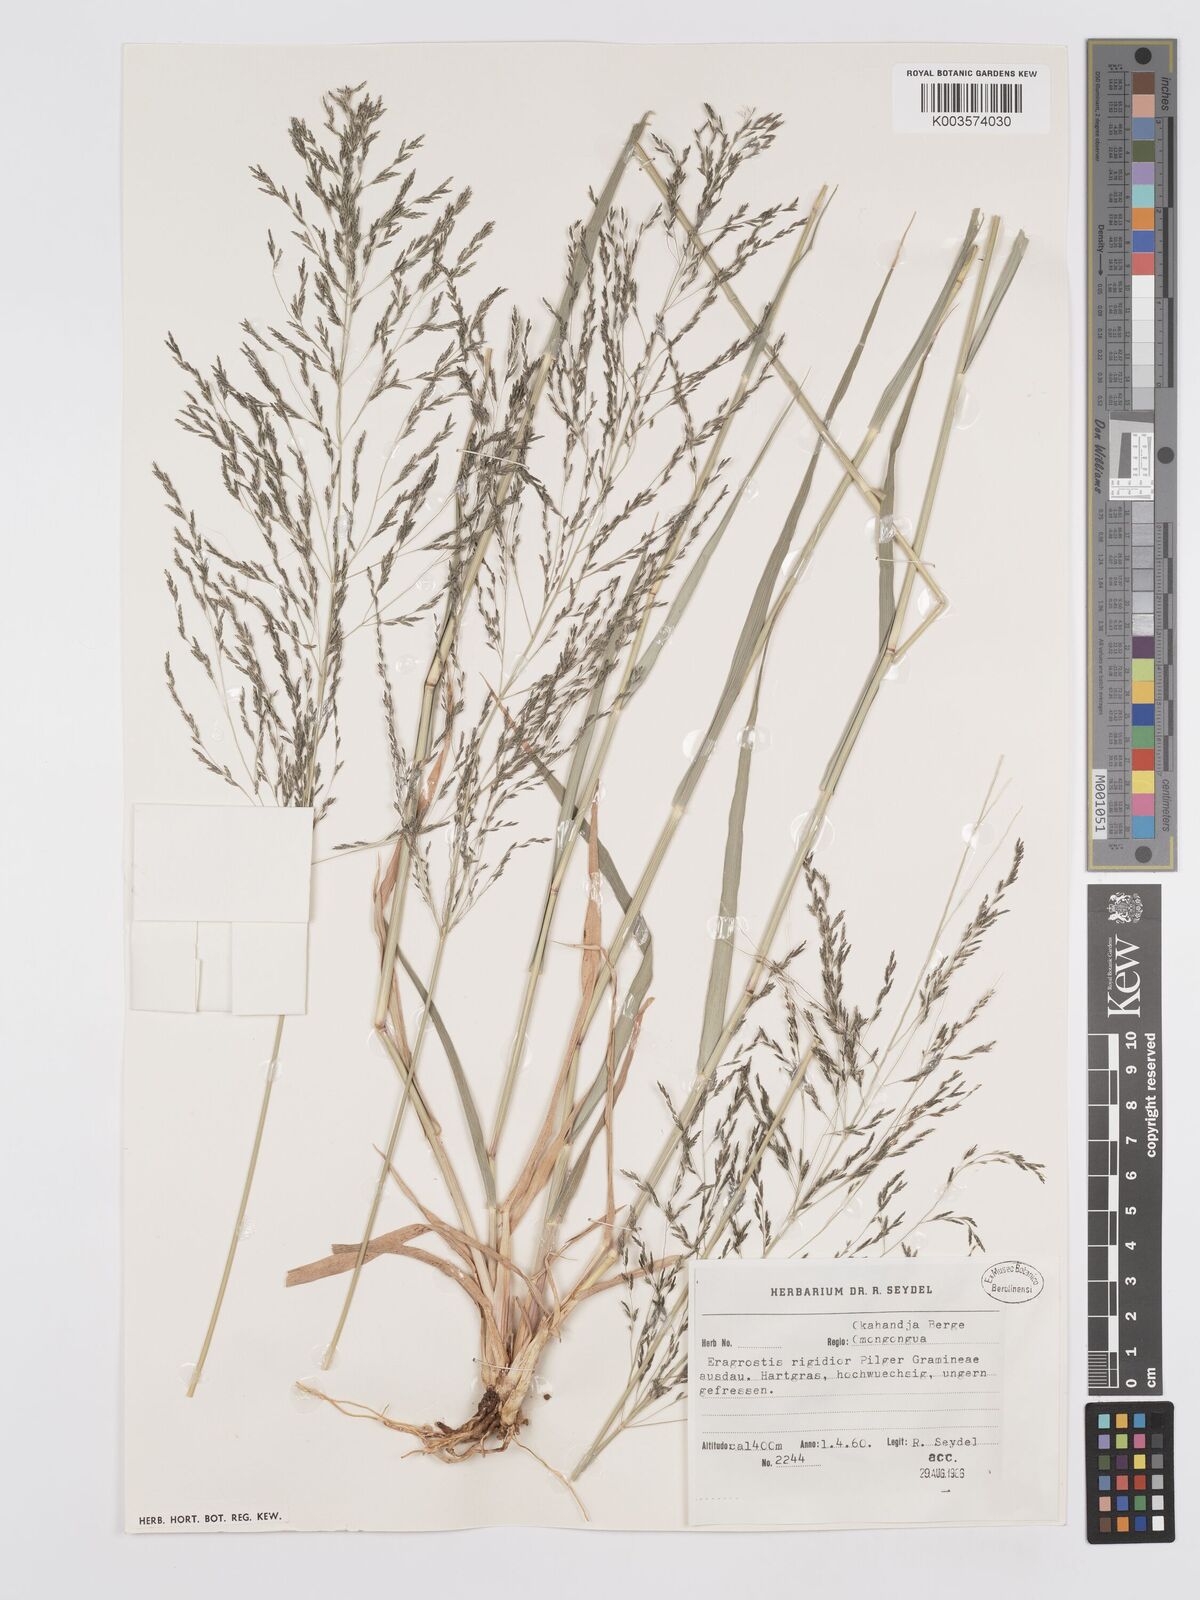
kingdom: Plantae
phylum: Tracheophyta
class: Liliopsida
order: Poales
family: Poaceae
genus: Eragrostis
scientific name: Eragrostis cylindriflora
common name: Cylinderflower lovegrass
